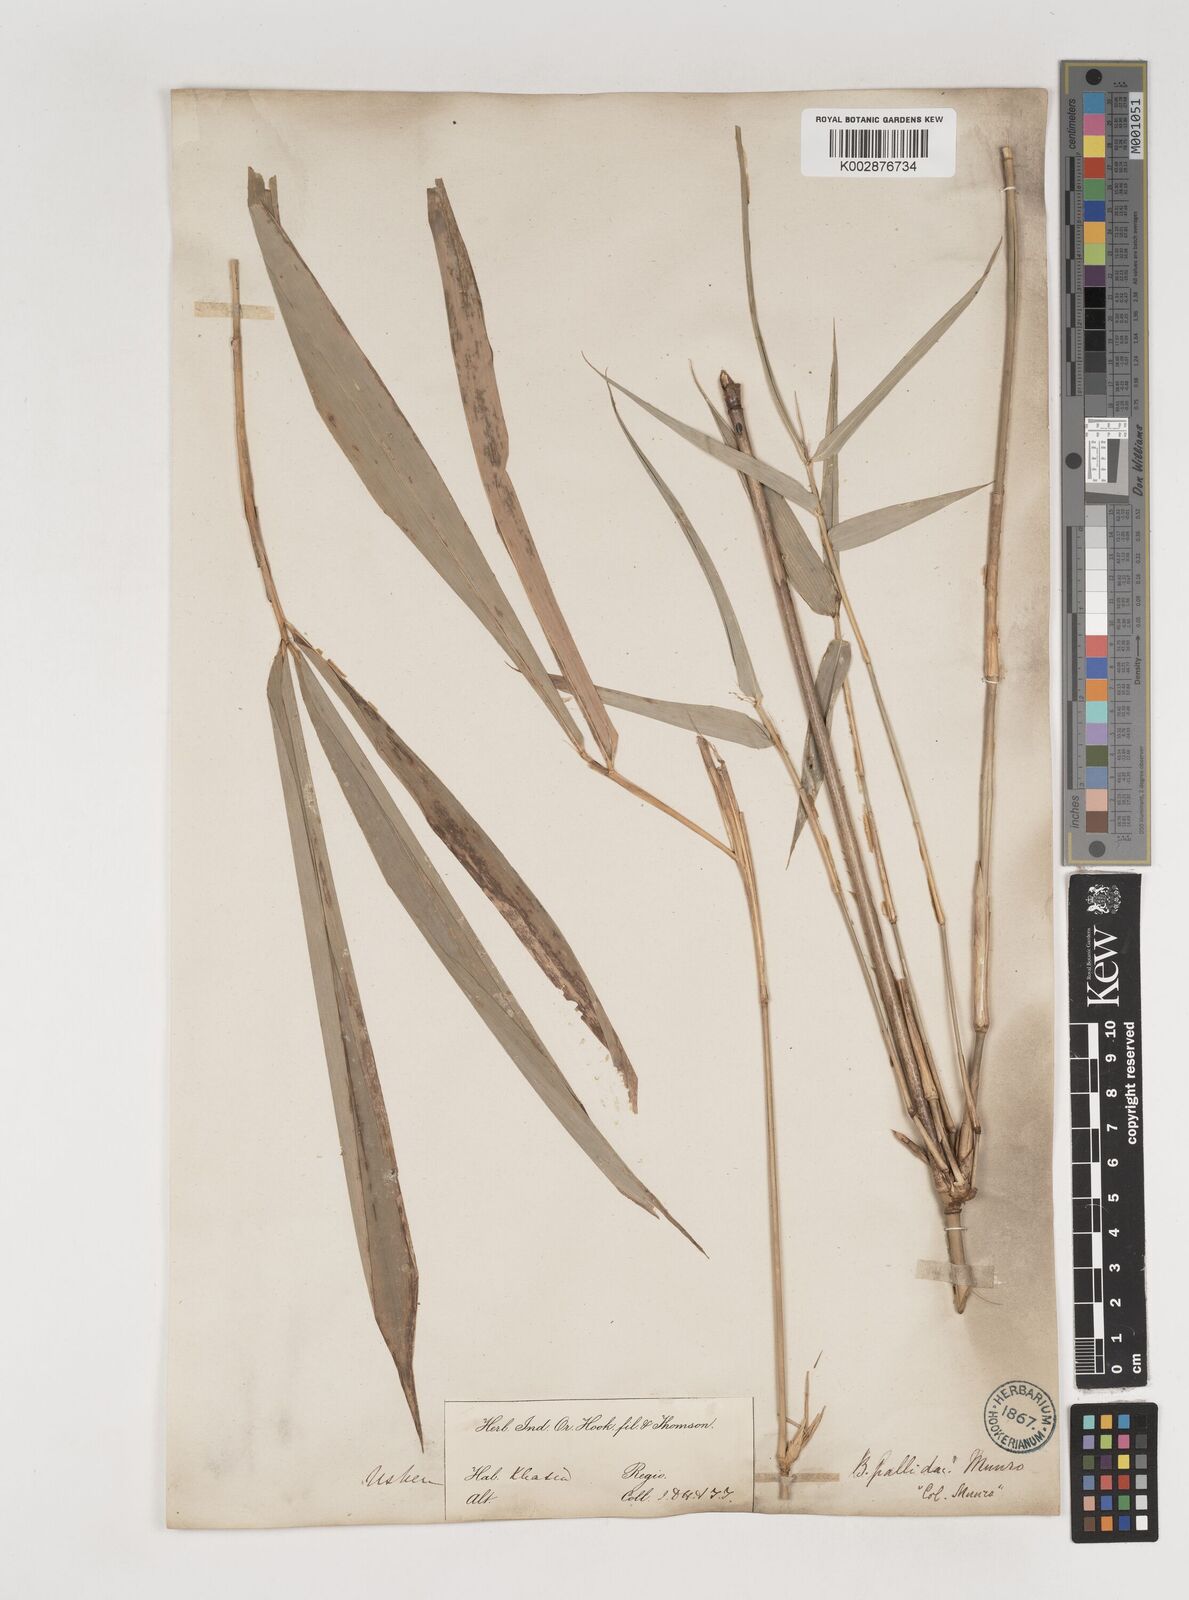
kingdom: Plantae
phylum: Tracheophyta
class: Liliopsida
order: Poales
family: Poaceae
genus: Bambusa
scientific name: Bambusa pallida
